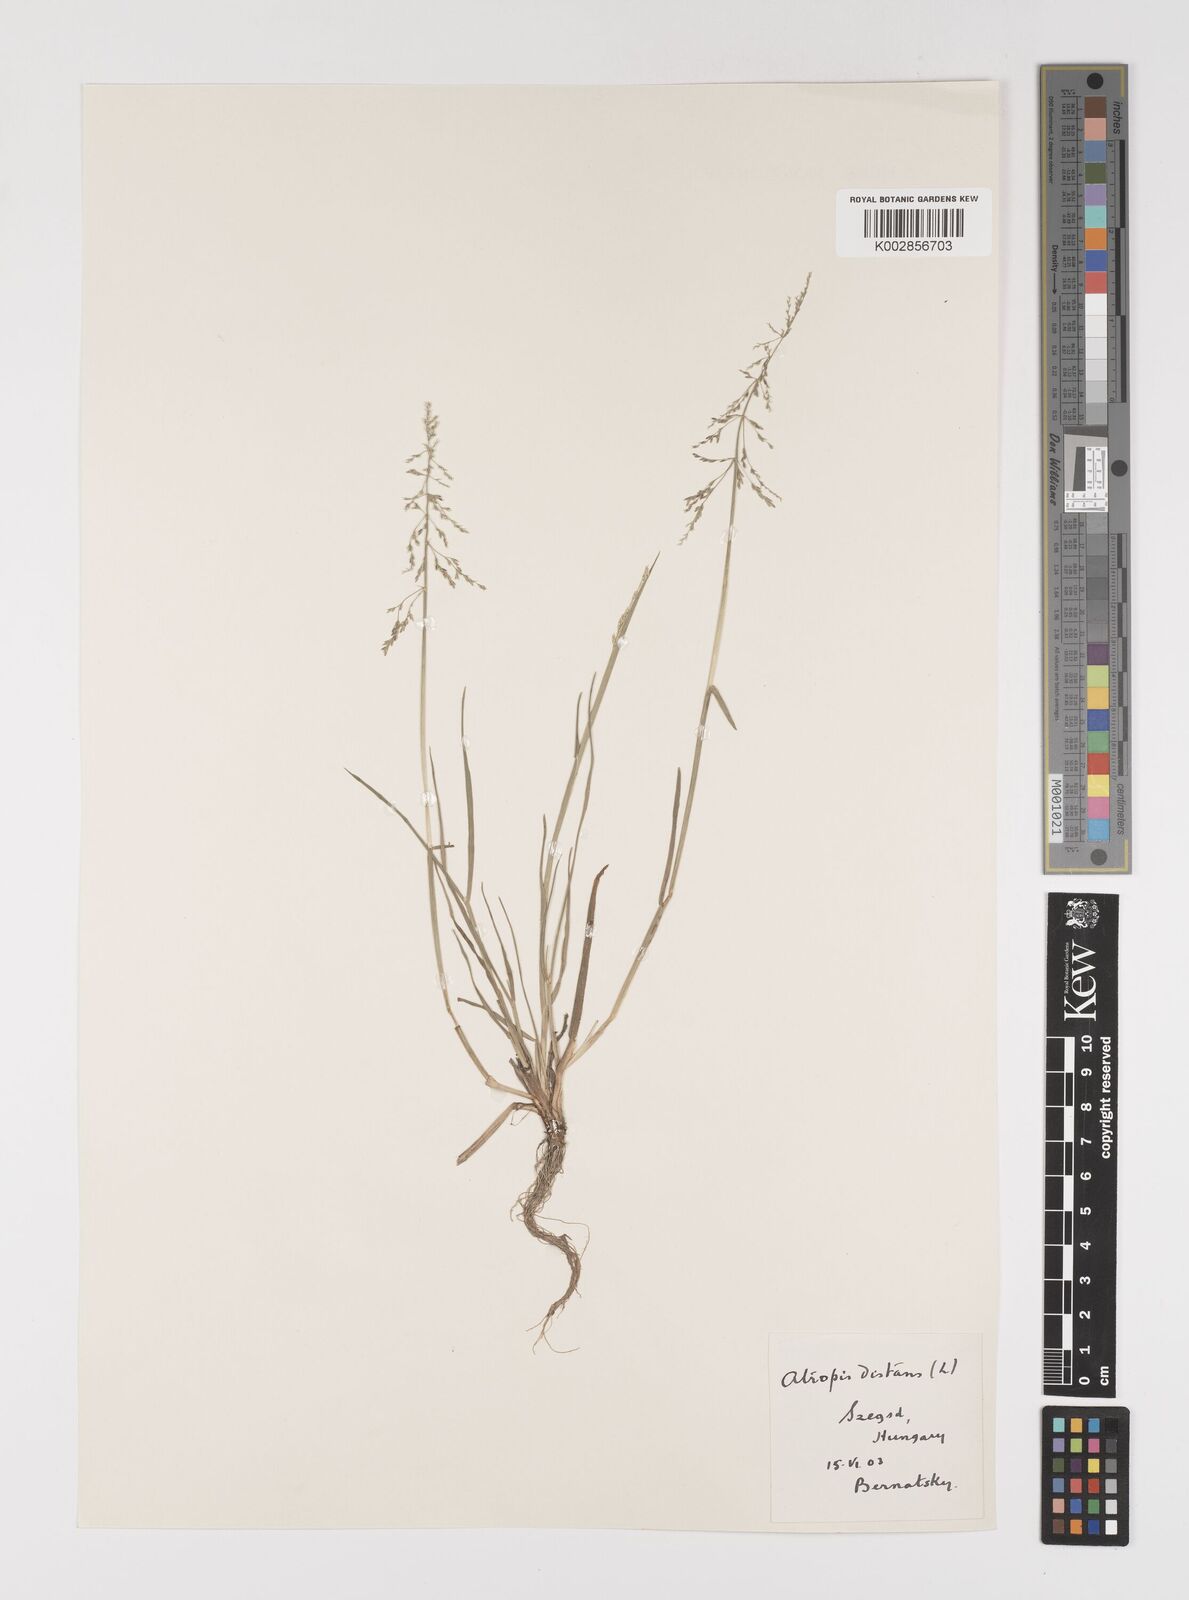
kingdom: Plantae
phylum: Tracheophyta
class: Liliopsida
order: Poales
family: Poaceae
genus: Puccinellia
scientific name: Puccinellia distans
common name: Weeping alkaligrass
